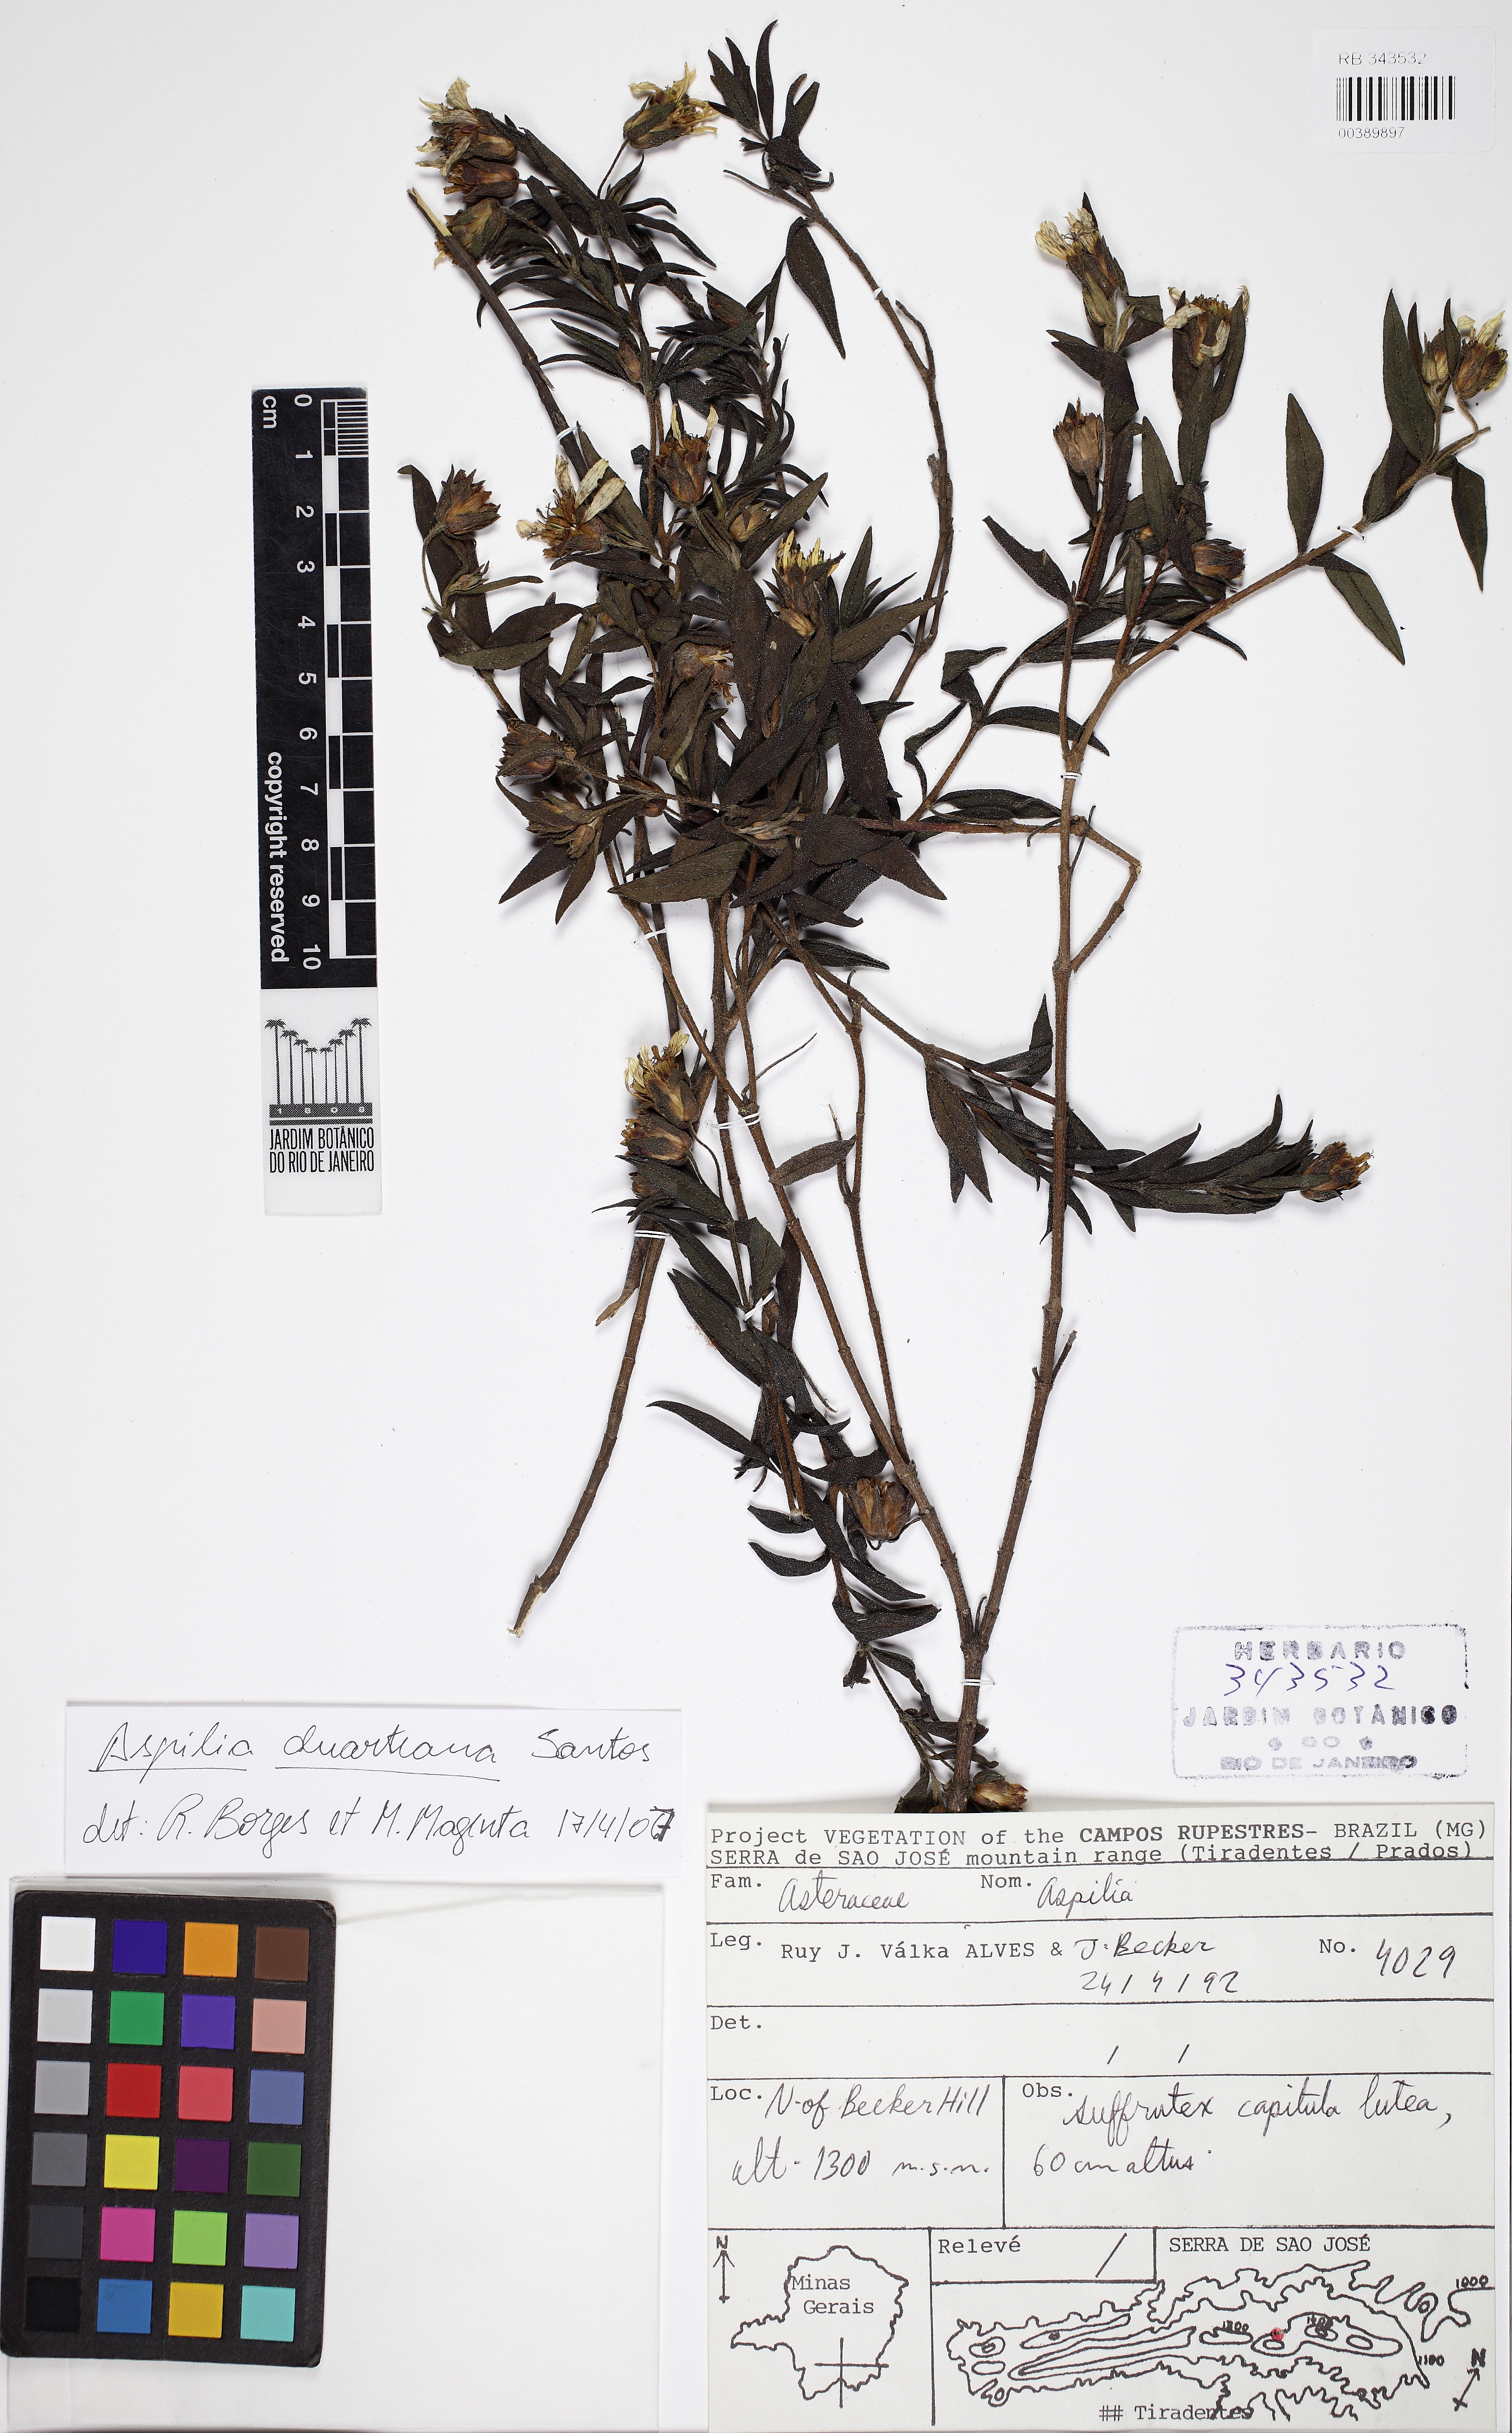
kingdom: Plantae
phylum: Tracheophyta
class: Magnoliopsida
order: Asterales
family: Asteraceae
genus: Aspilia
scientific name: Aspilia duarteana
